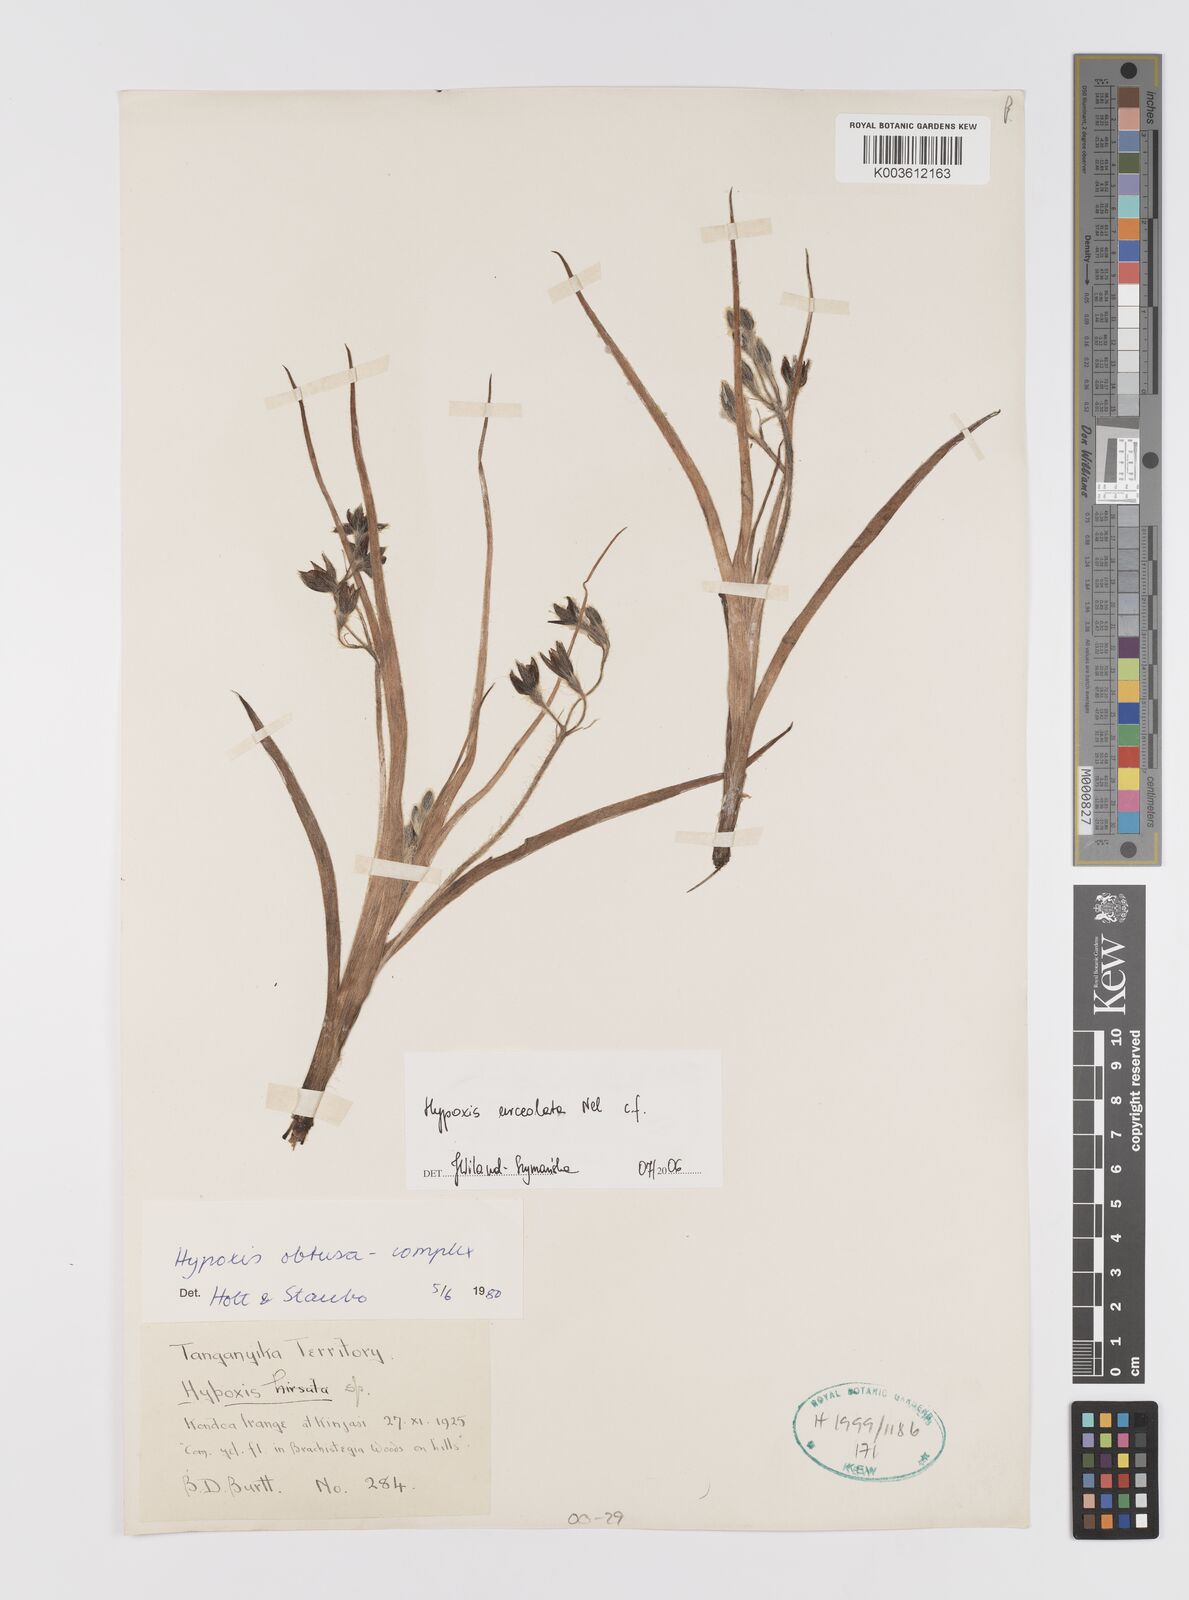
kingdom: Plantae
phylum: Tracheophyta
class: Liliopsida
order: Asparagales
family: Hypoxidaceae
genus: Hypoxis
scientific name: Hypoxis urceolata
